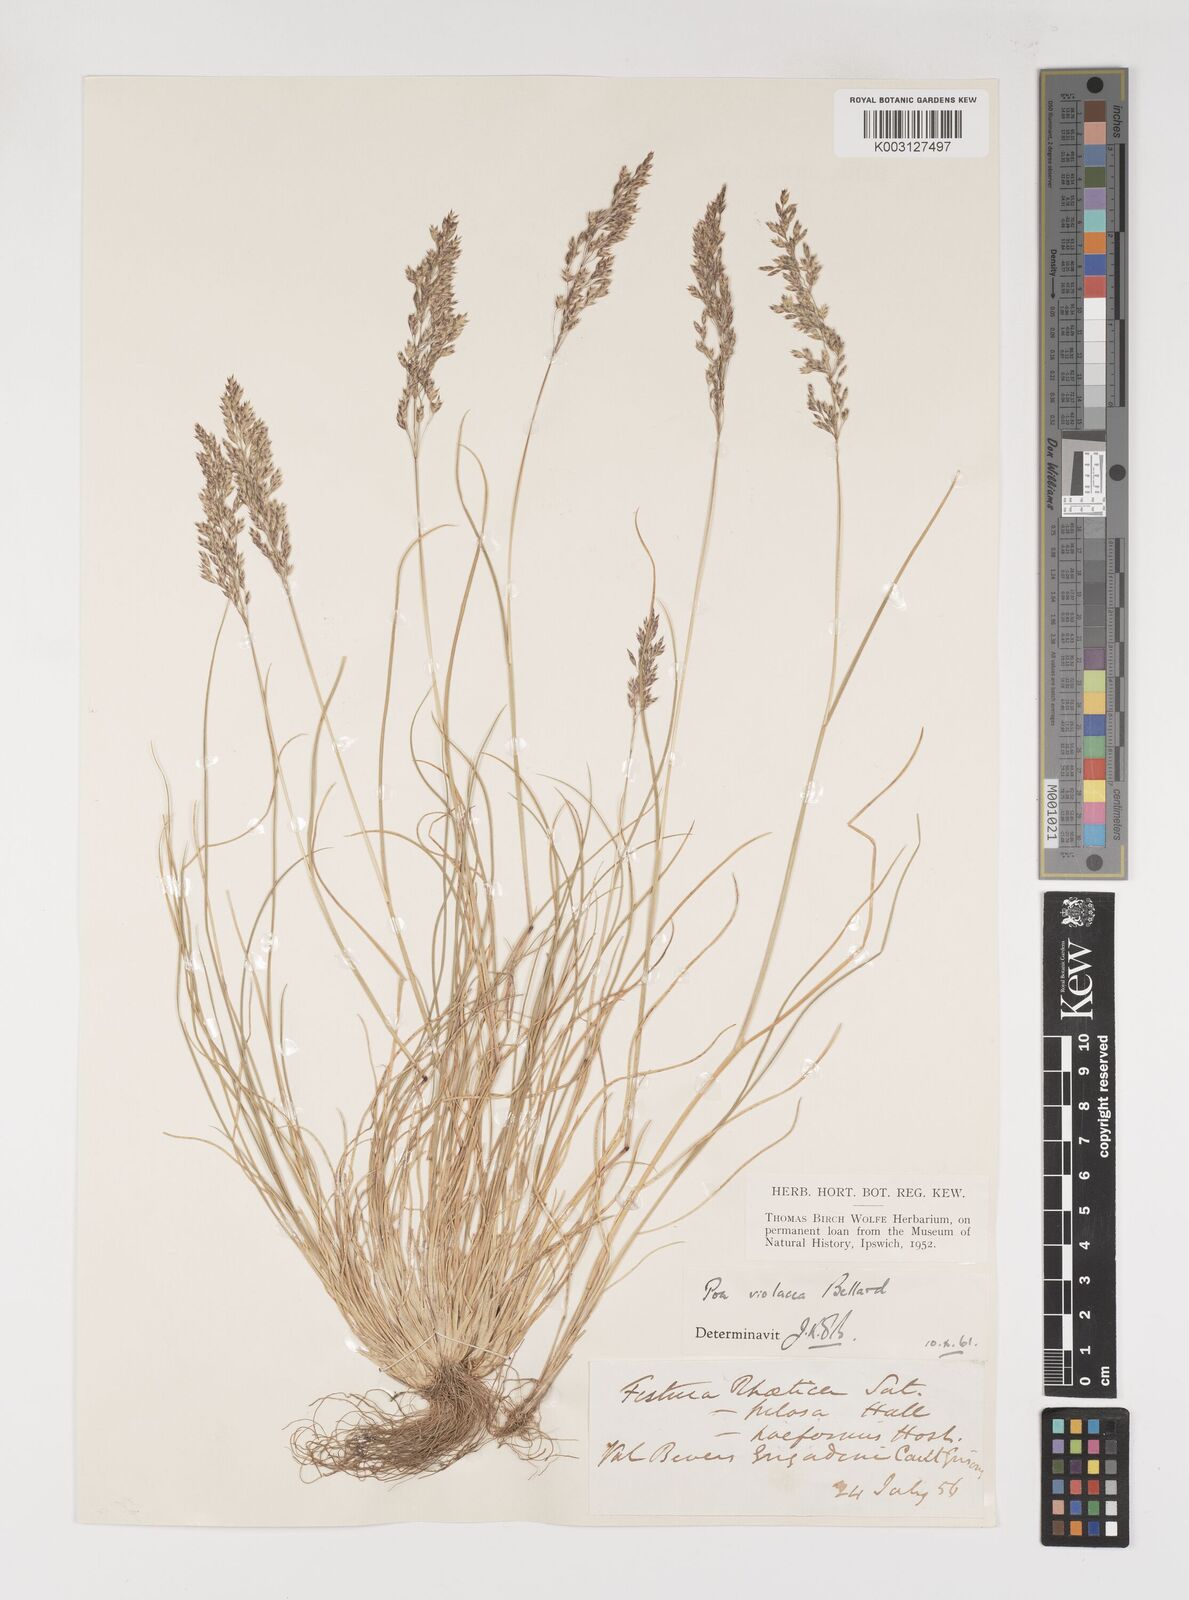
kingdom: Plantae
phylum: Tracheophyta
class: Liliopsida
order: Poales
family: Poaceae
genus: Bellardiochloa
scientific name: Bellardiochloa variegata
